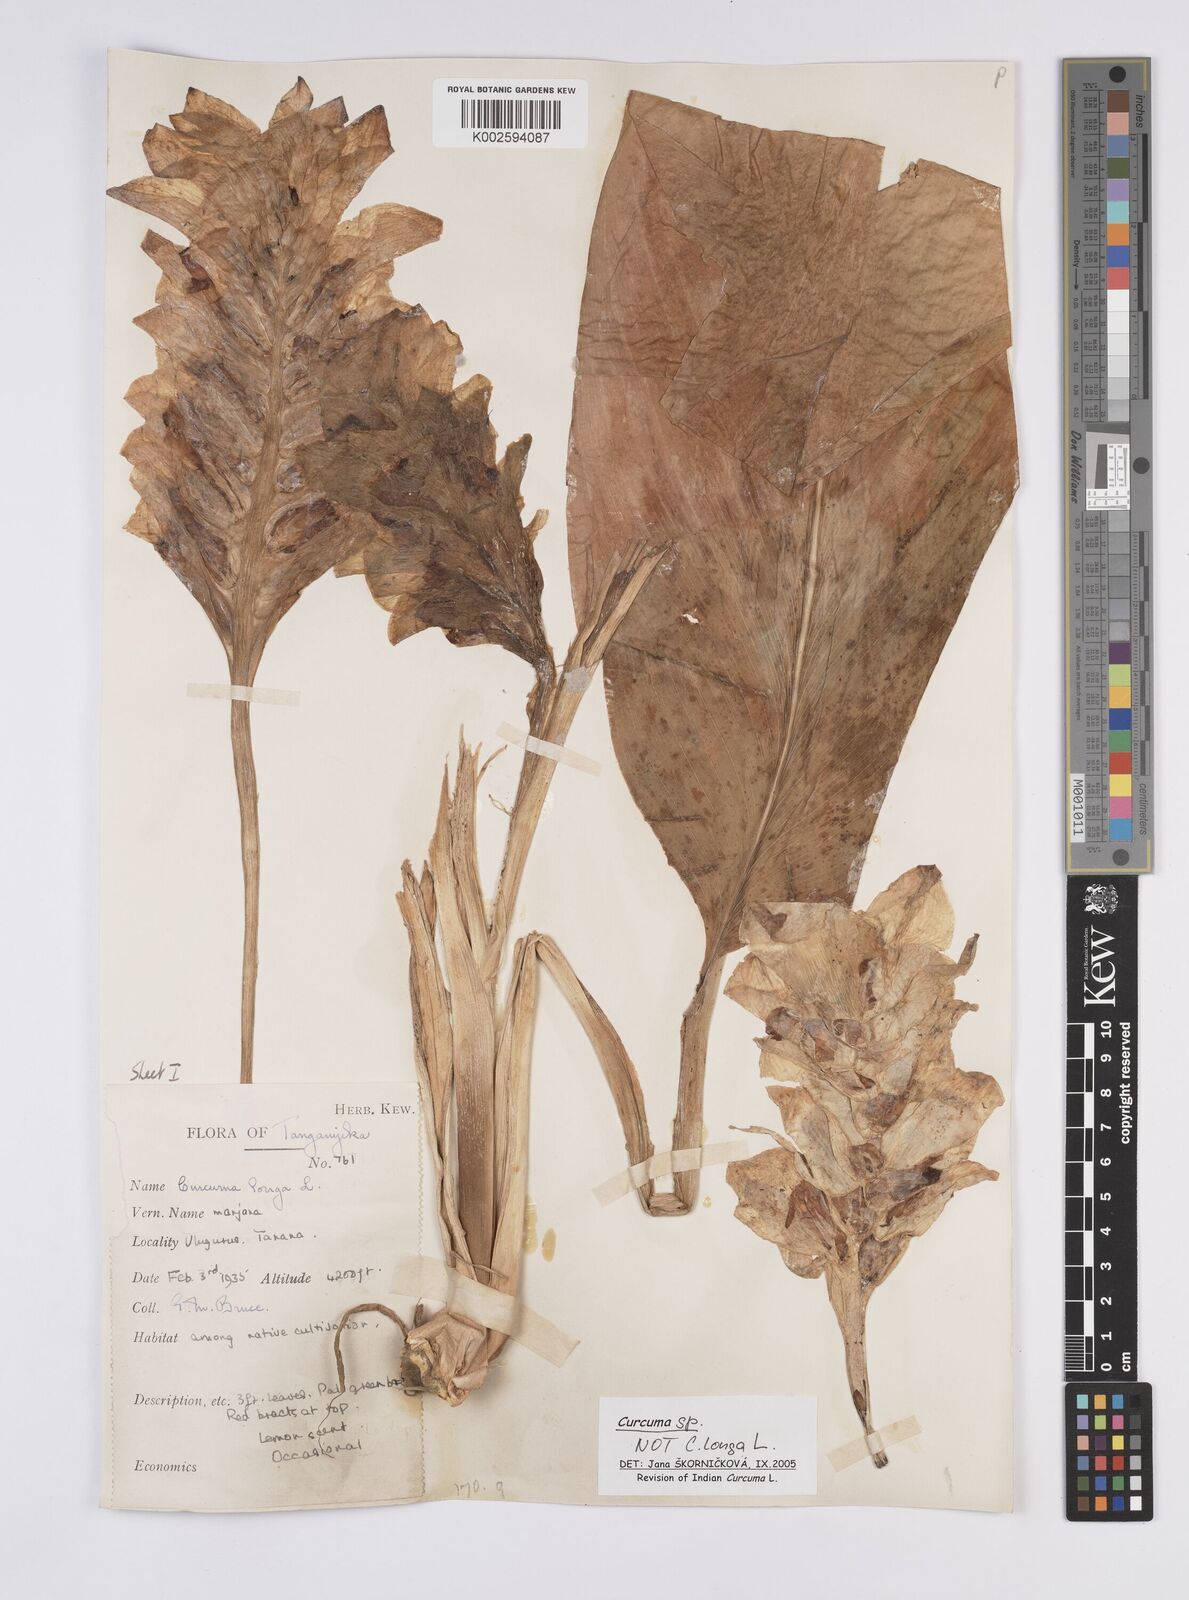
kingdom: Plantae
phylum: Tracheophyta
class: Liliopsida
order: Zingiberales
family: Zingiberaceae
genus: Curcuma
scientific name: Curcuma
